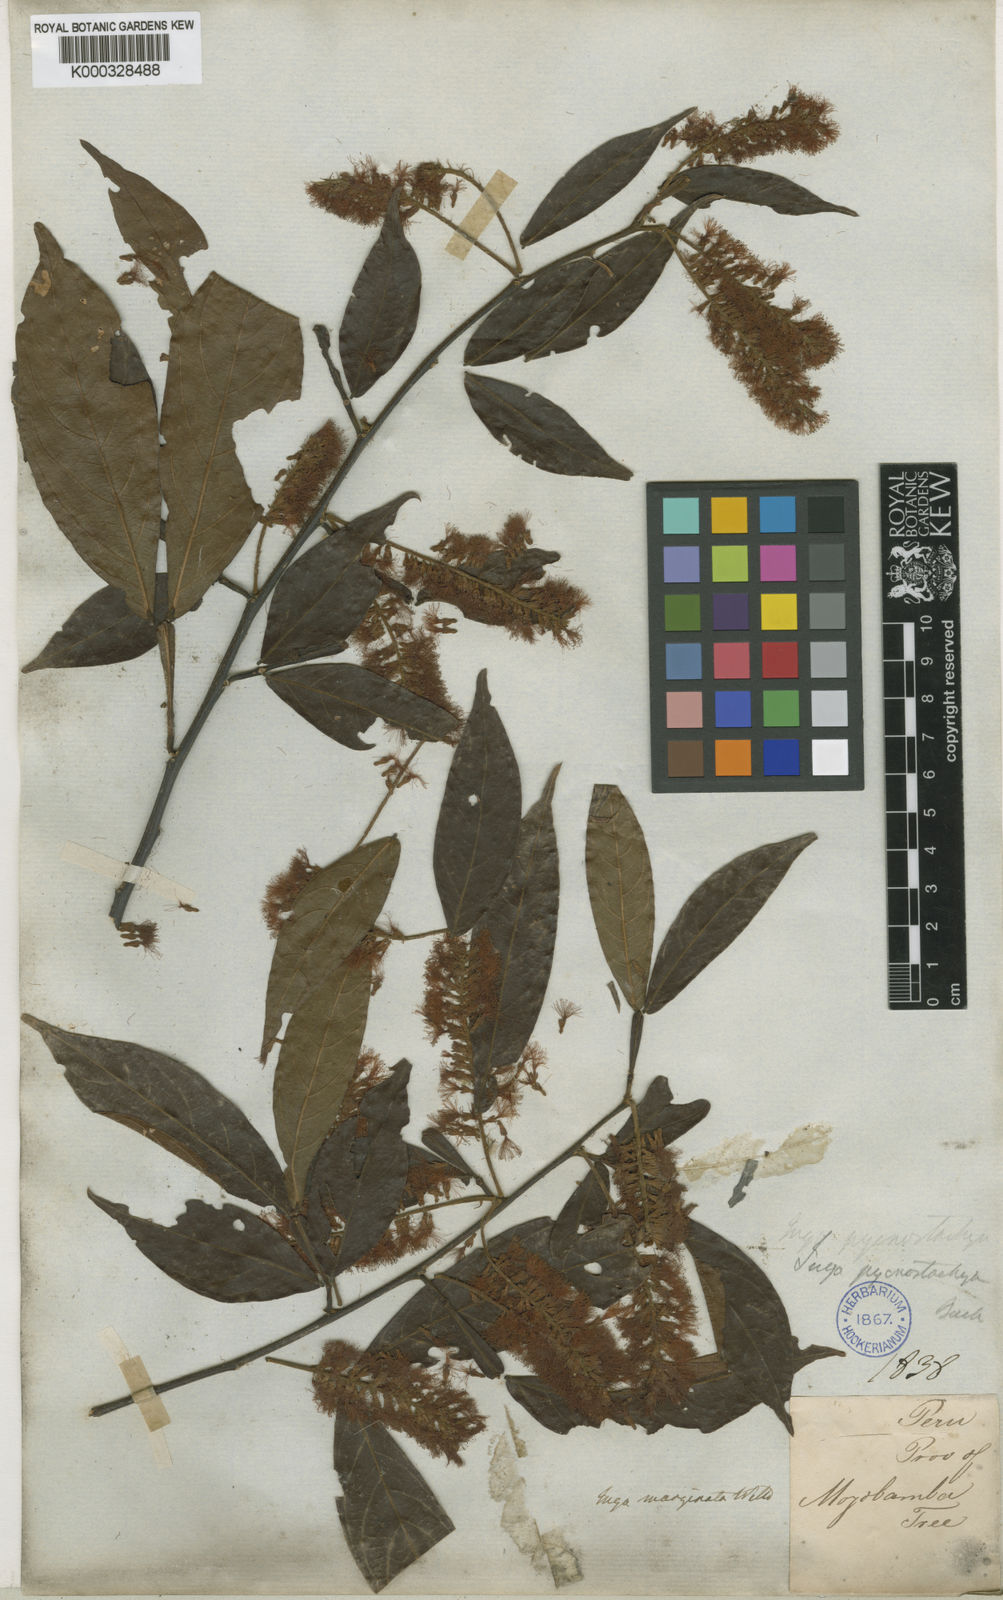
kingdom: Plantae
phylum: Tracheophyta
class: Magnoliopsida
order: Fabales
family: Fabaceae
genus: Inga
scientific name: Inga marginata
